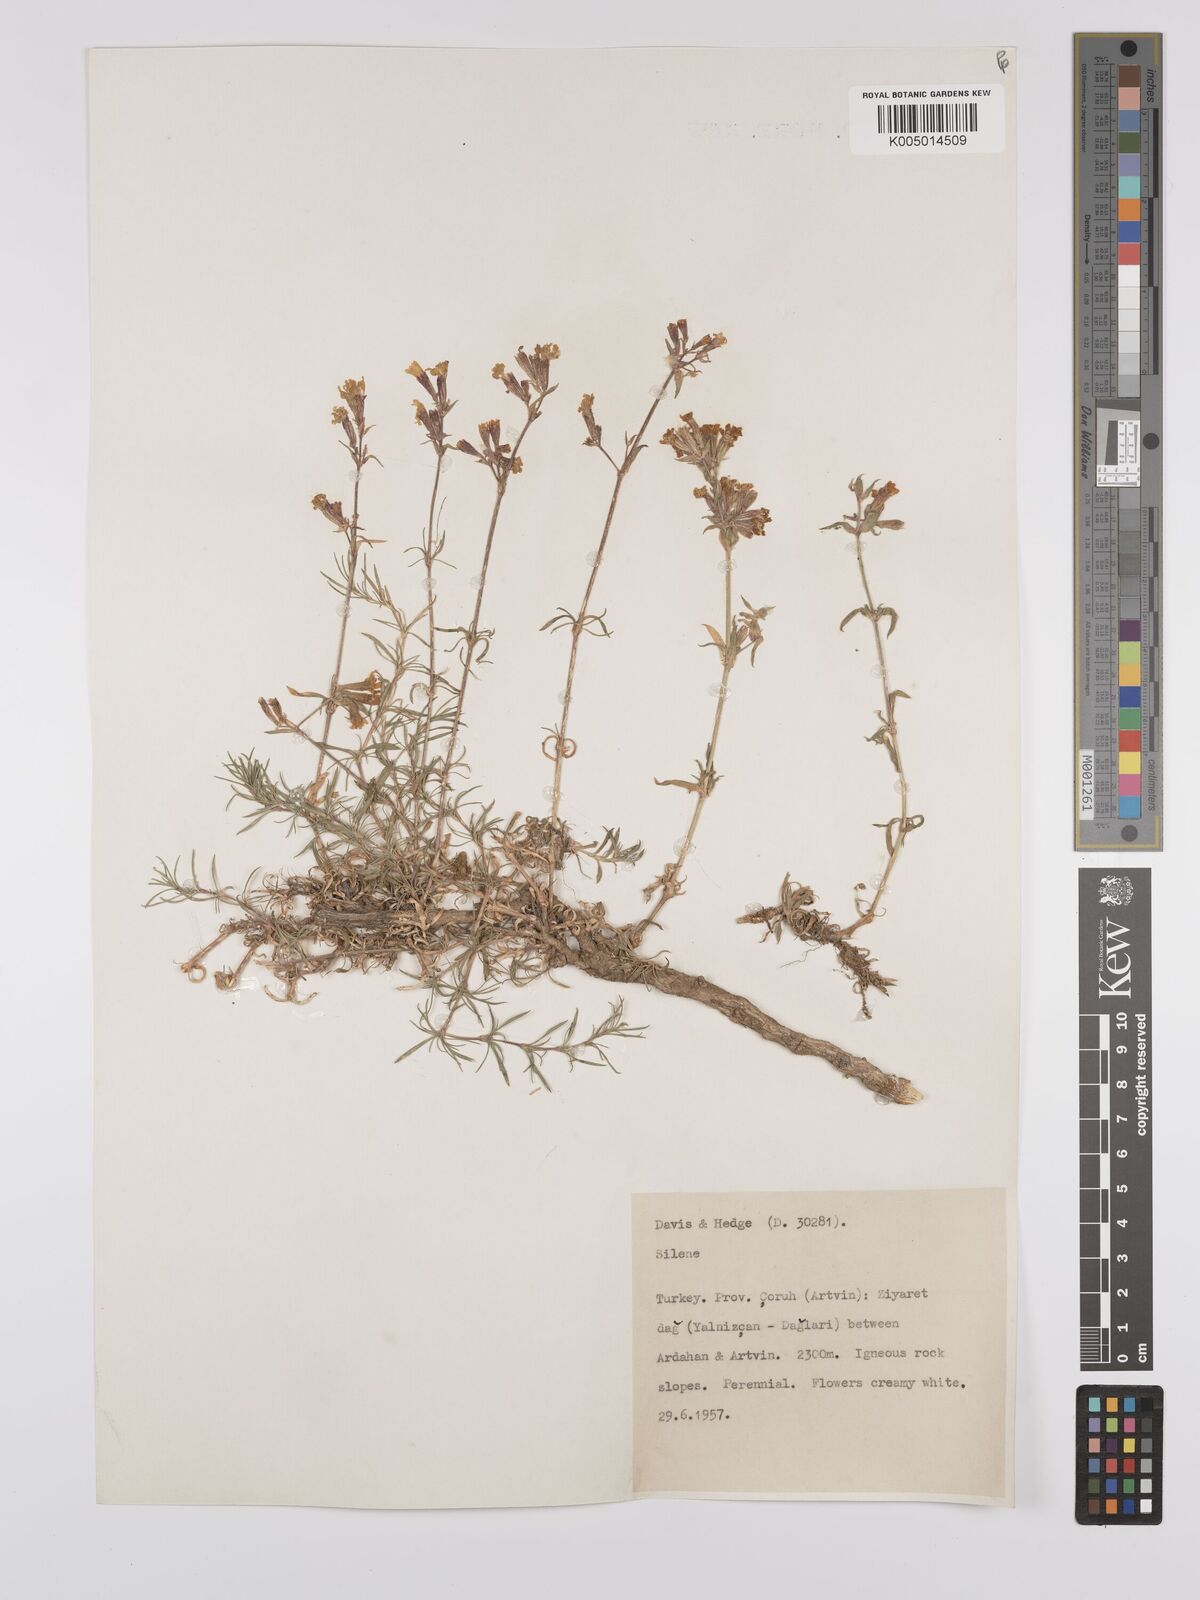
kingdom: Plantae
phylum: Tracheophyta
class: Magnoliopsida
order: Caryophyllales
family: Caryophyllaceae
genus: Silene
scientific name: Silene
